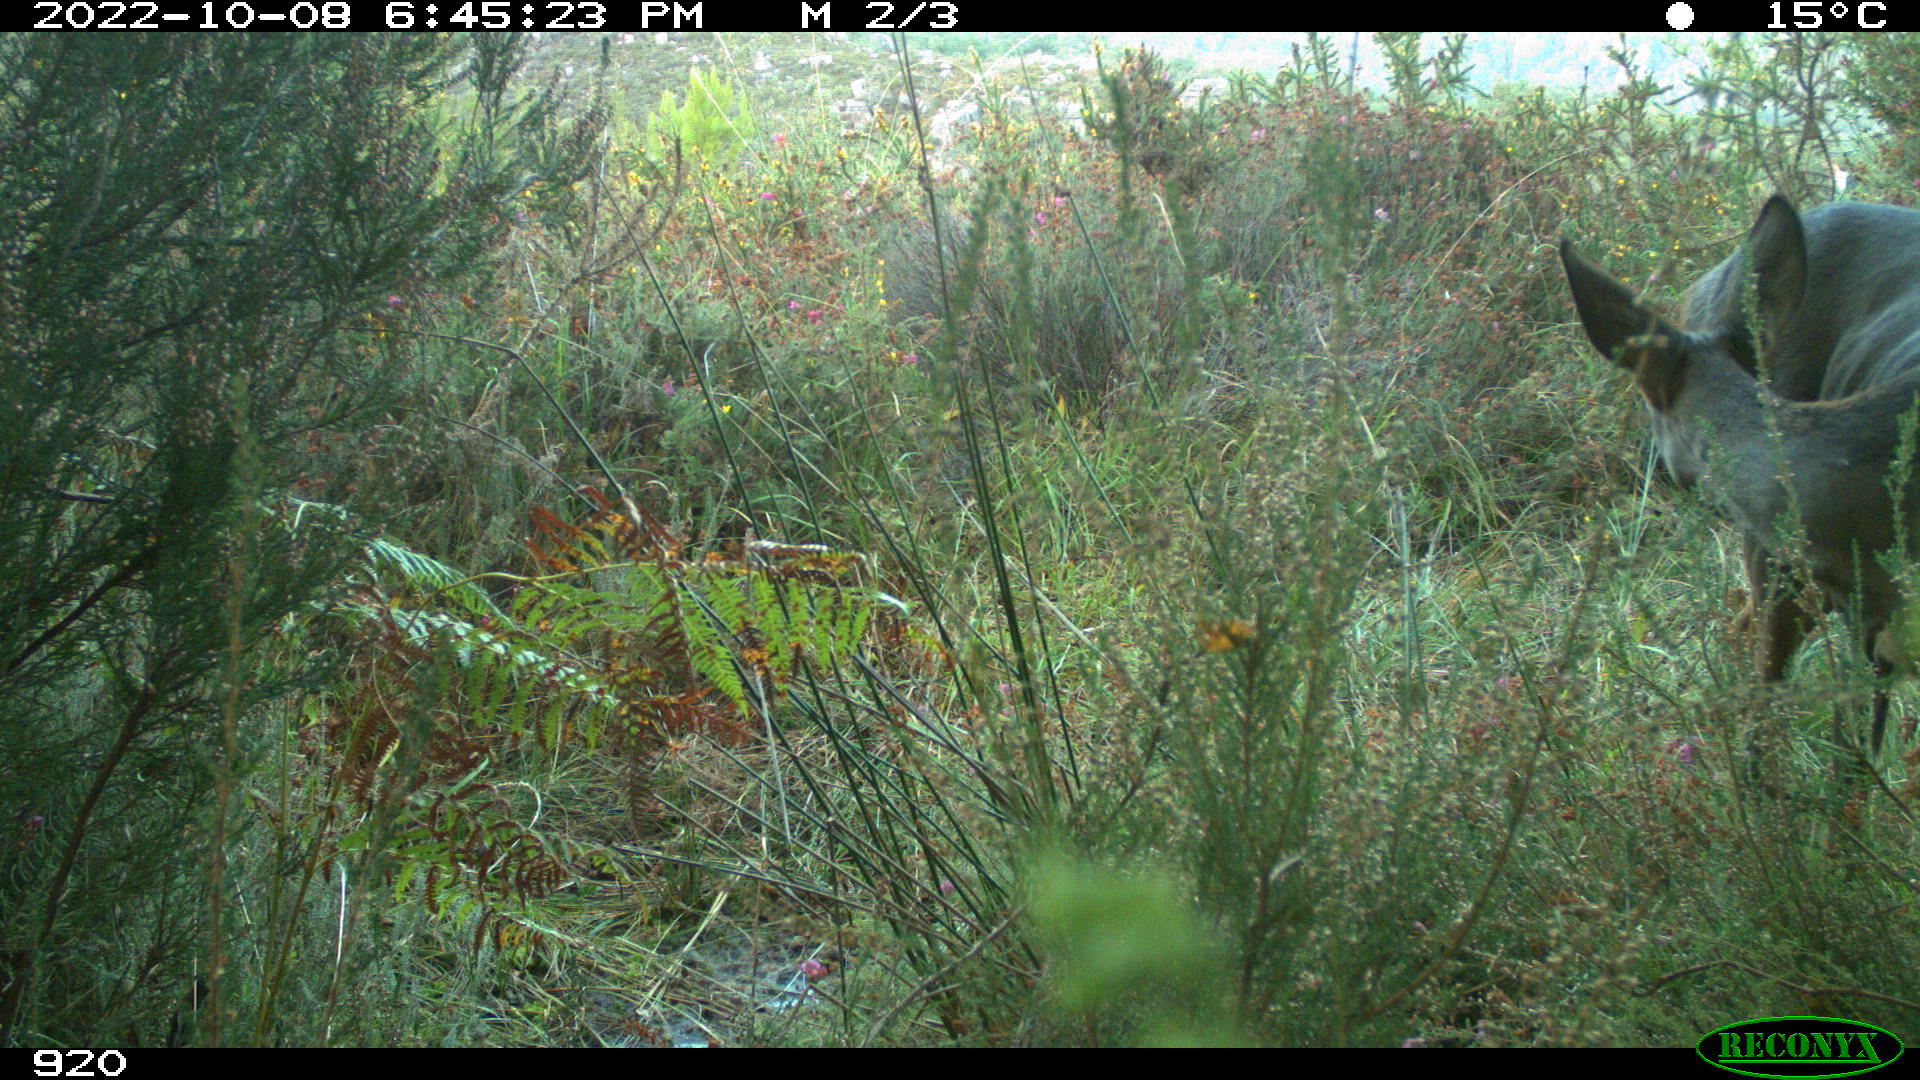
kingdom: Animalia
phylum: Chordata
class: Mammalia
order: Artiodactyla
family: Cervidae
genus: Capreolus
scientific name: Capreolus capreolus
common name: Western roe deer
